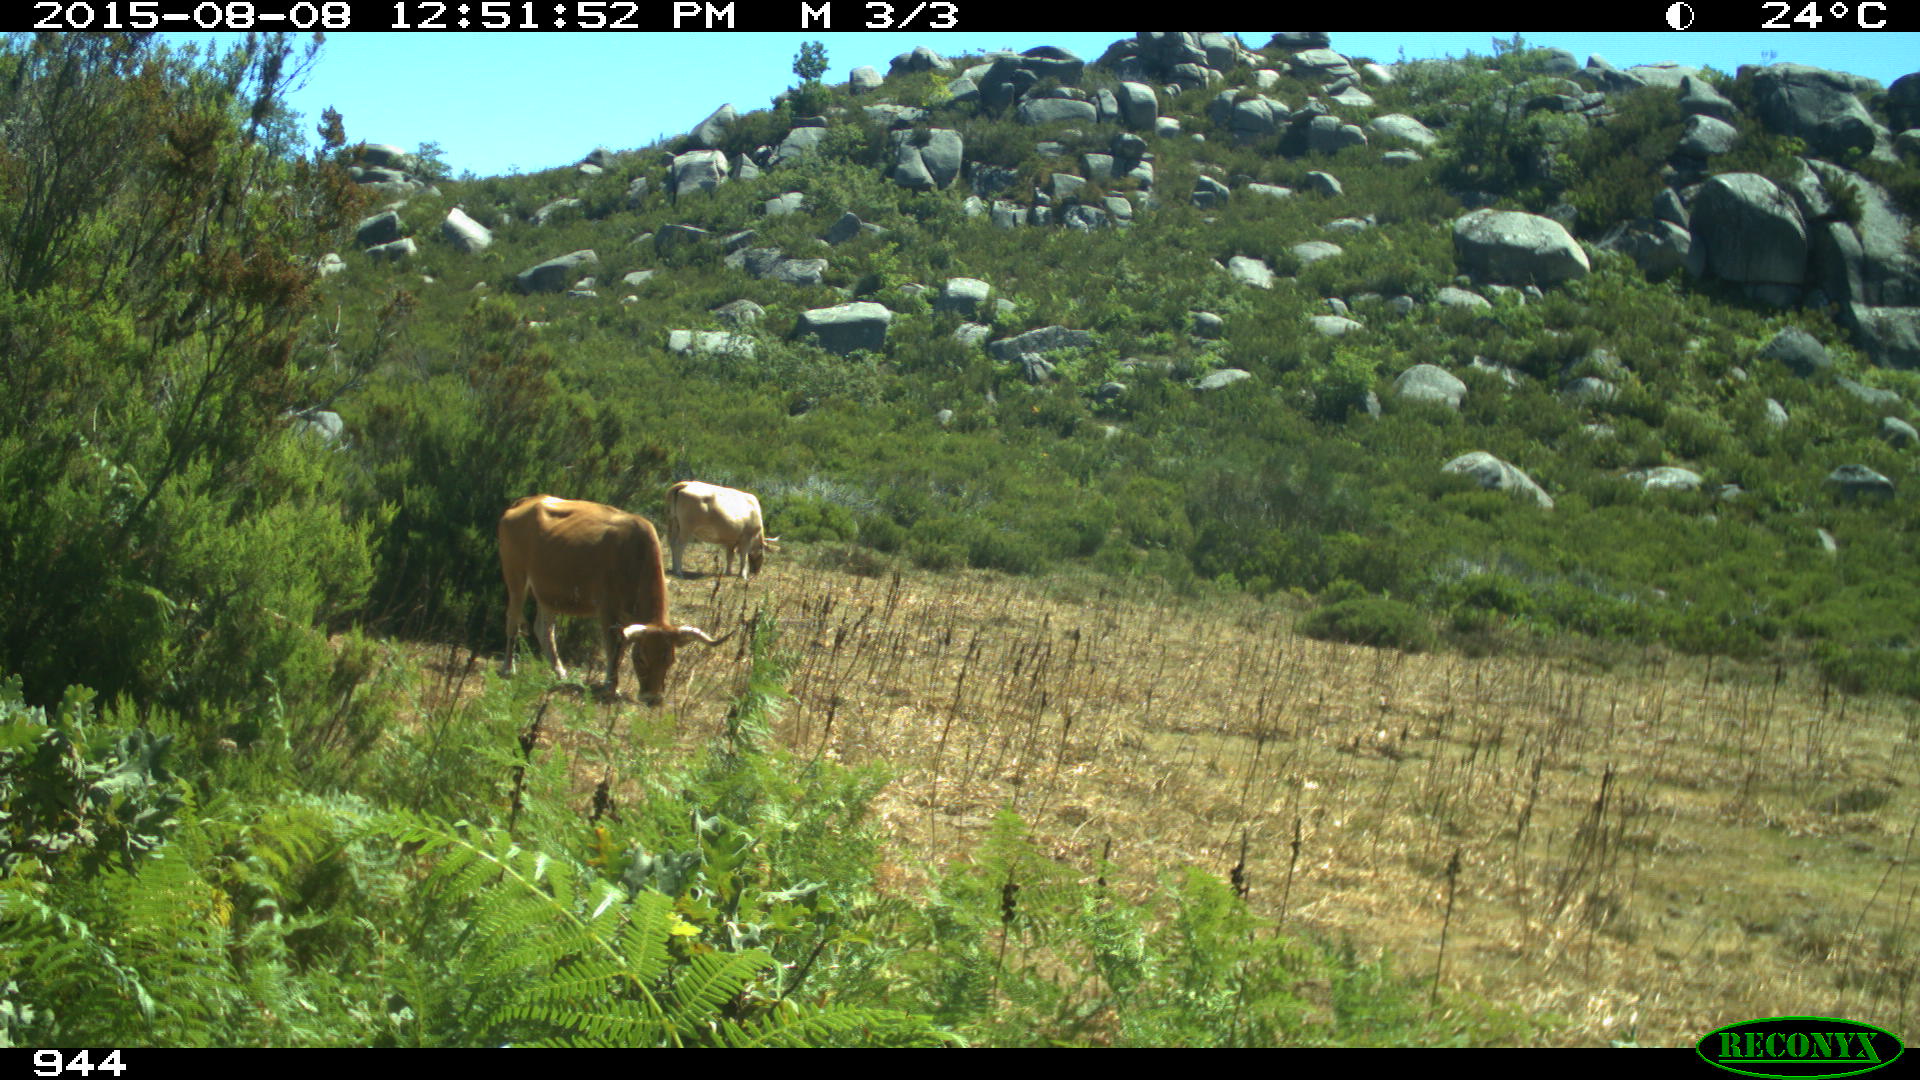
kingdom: Animalia
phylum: Chordata
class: Mammalia
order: Artiodactyla
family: Bovidae
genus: Bos
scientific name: Bos taurus
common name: Domesticated cattle
